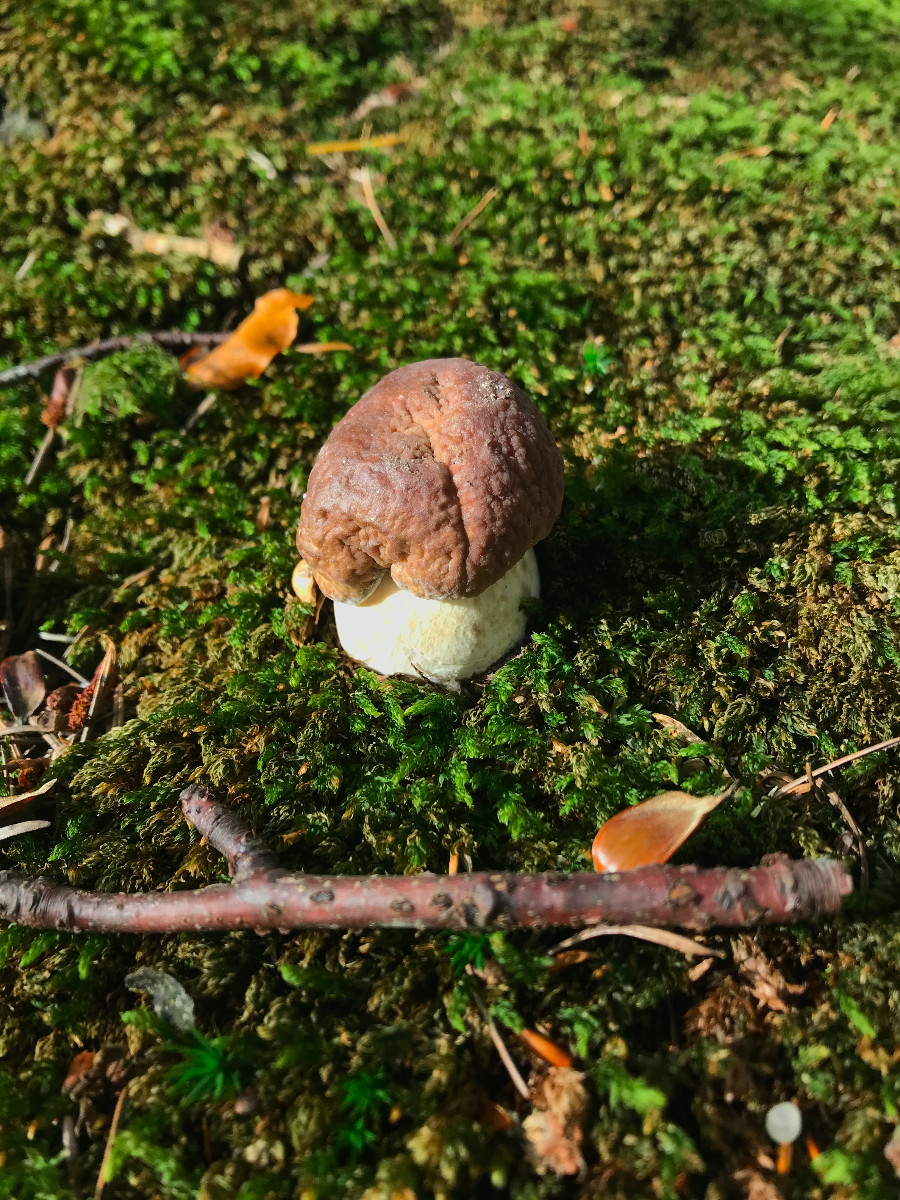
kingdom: Fungi
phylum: Basidiomycota
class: Agaricomycetes
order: Boletales
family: Boletaceae
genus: Boletus
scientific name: Boletus edulis
